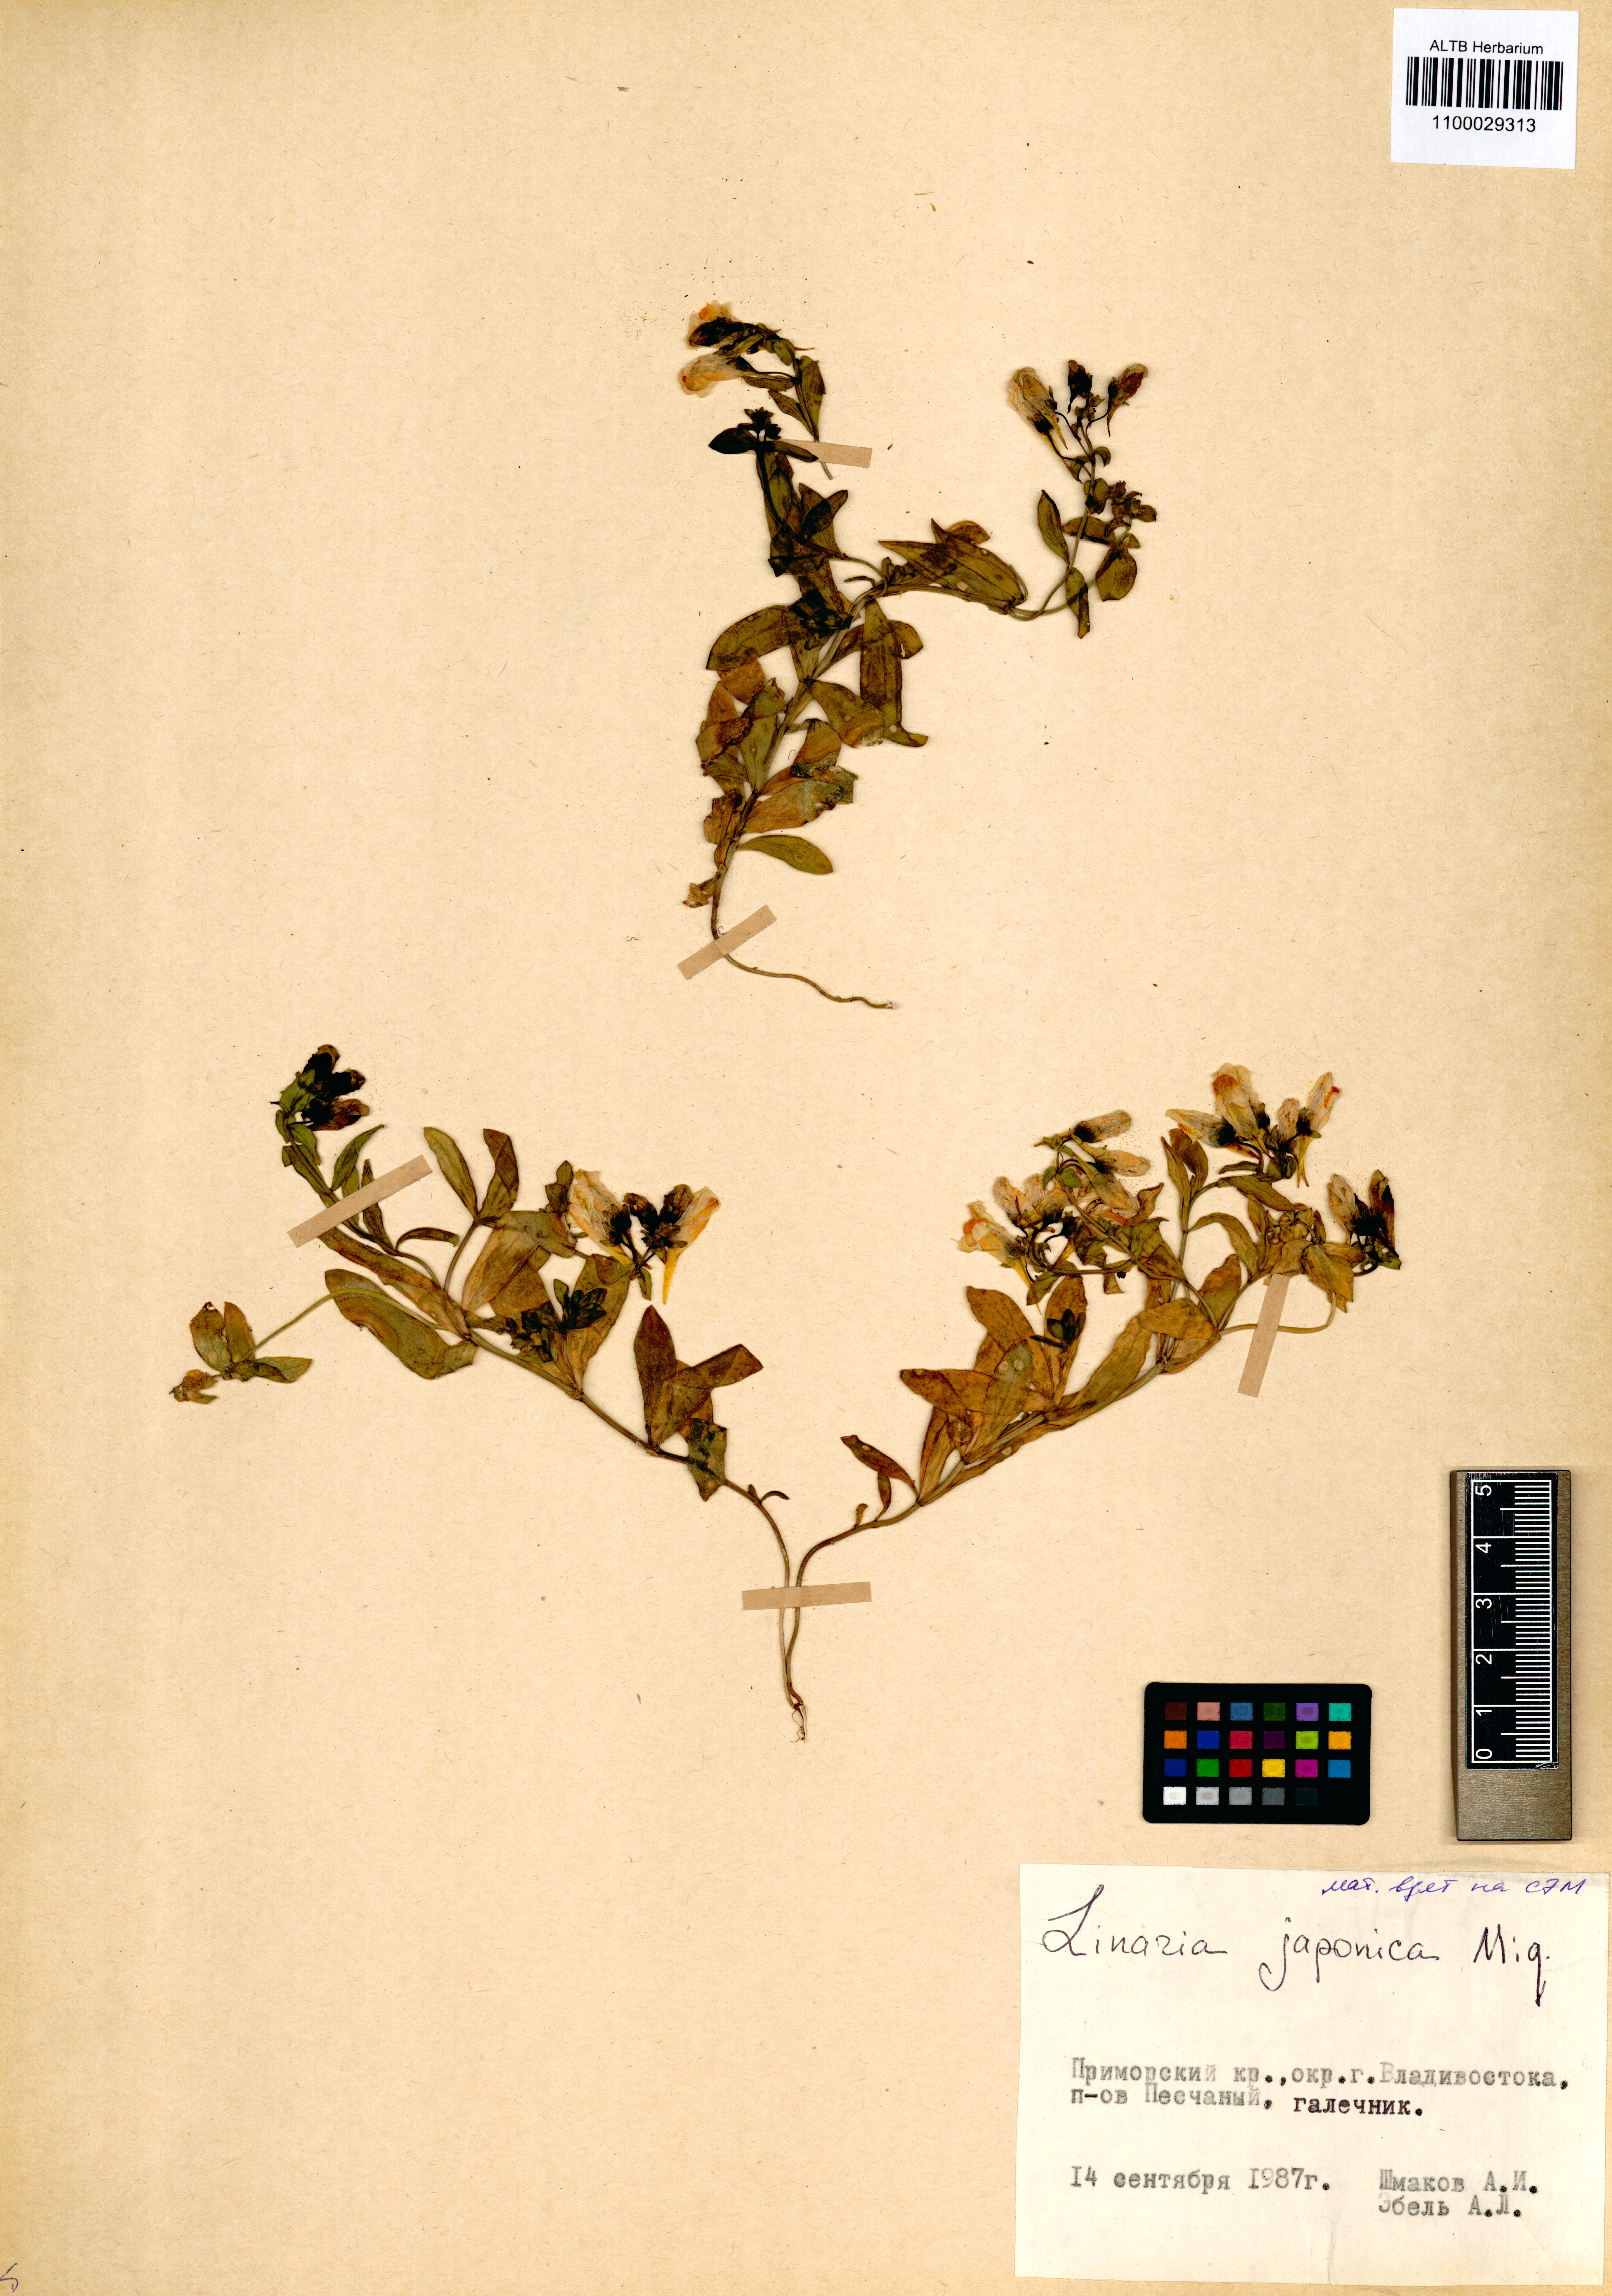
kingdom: Plantae
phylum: Tracheophyta
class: Magnoliopsida
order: Lamiales
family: Plantaginaceae
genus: Linaria
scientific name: Linaria japonica
